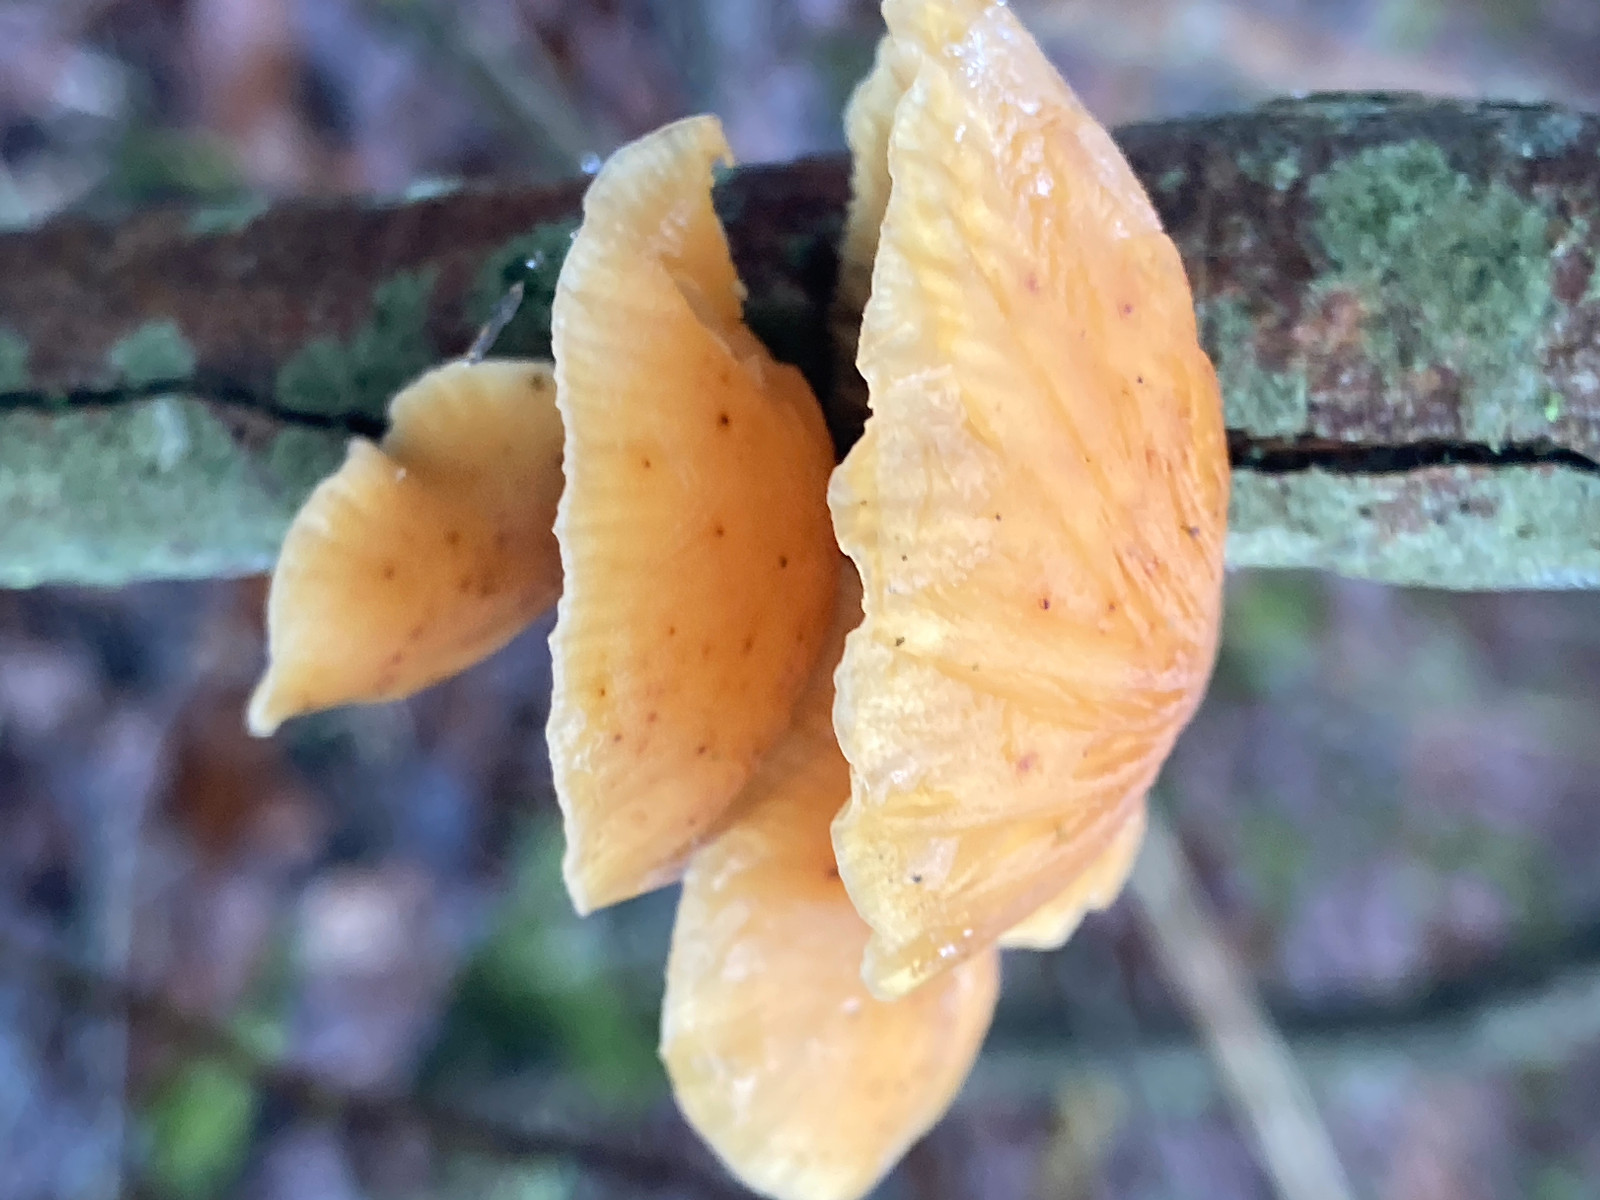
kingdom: Fungi
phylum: Basidiomycota
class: Agaricomycetes
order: Agaricales
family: Physalacriaceae
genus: Flammulina
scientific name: Flammulina
